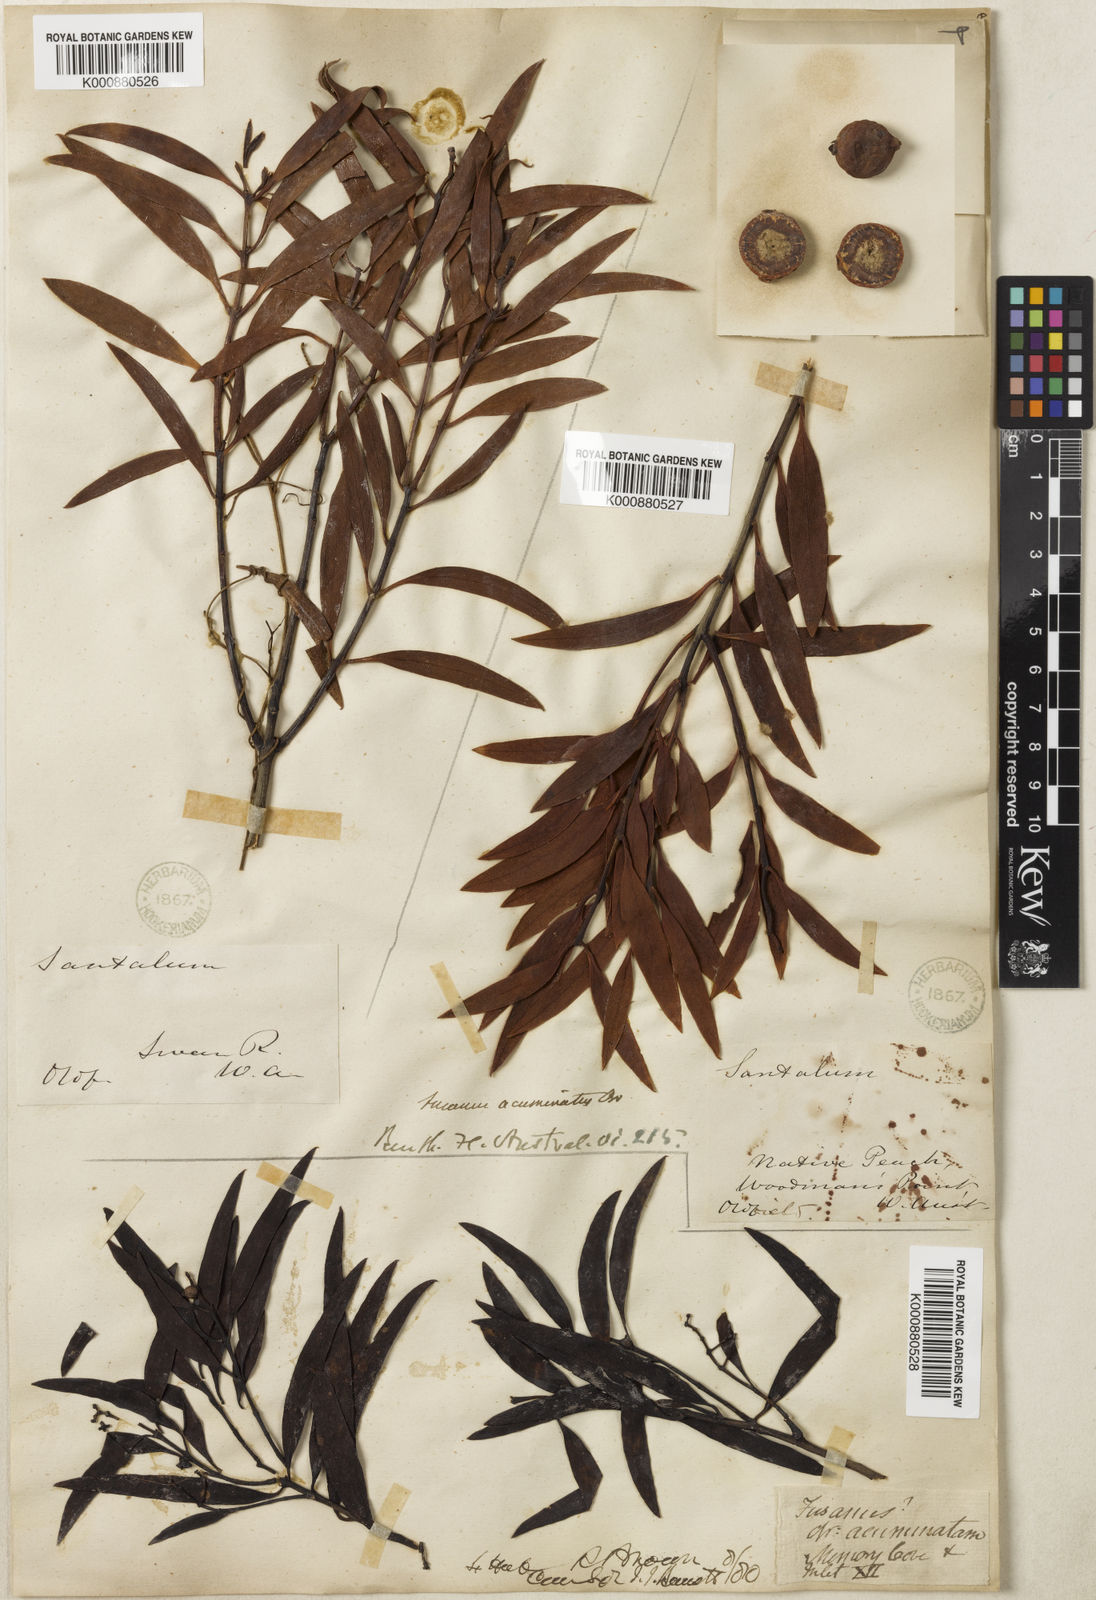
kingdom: Plantae
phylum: Tracheophyta
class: Magnoliopsida
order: Santalales
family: Santalaceae
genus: Santalum
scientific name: Santalum acuminatum
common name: Sweet quandong
